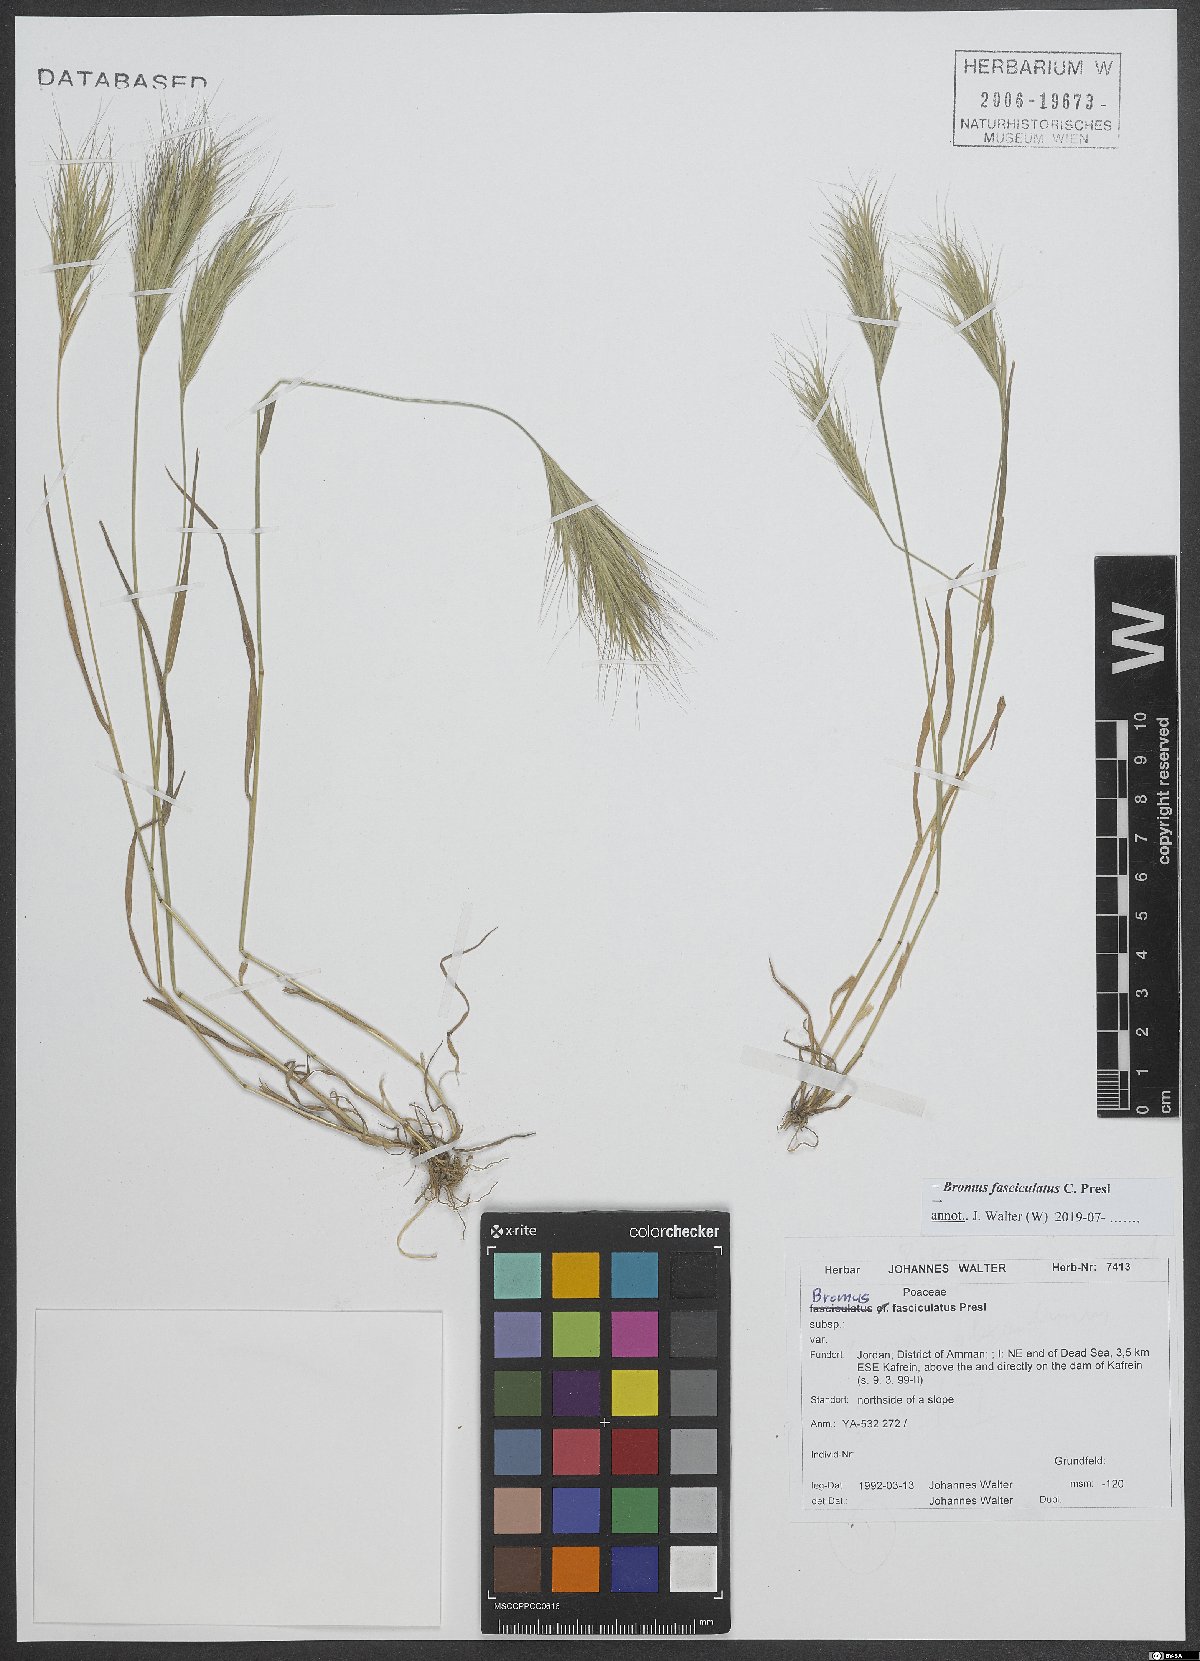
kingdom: Plantae
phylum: Tracheophyta
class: Liliopsida
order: Poales
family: Poaceae
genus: Bromus
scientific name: Bromus fasciculatus
